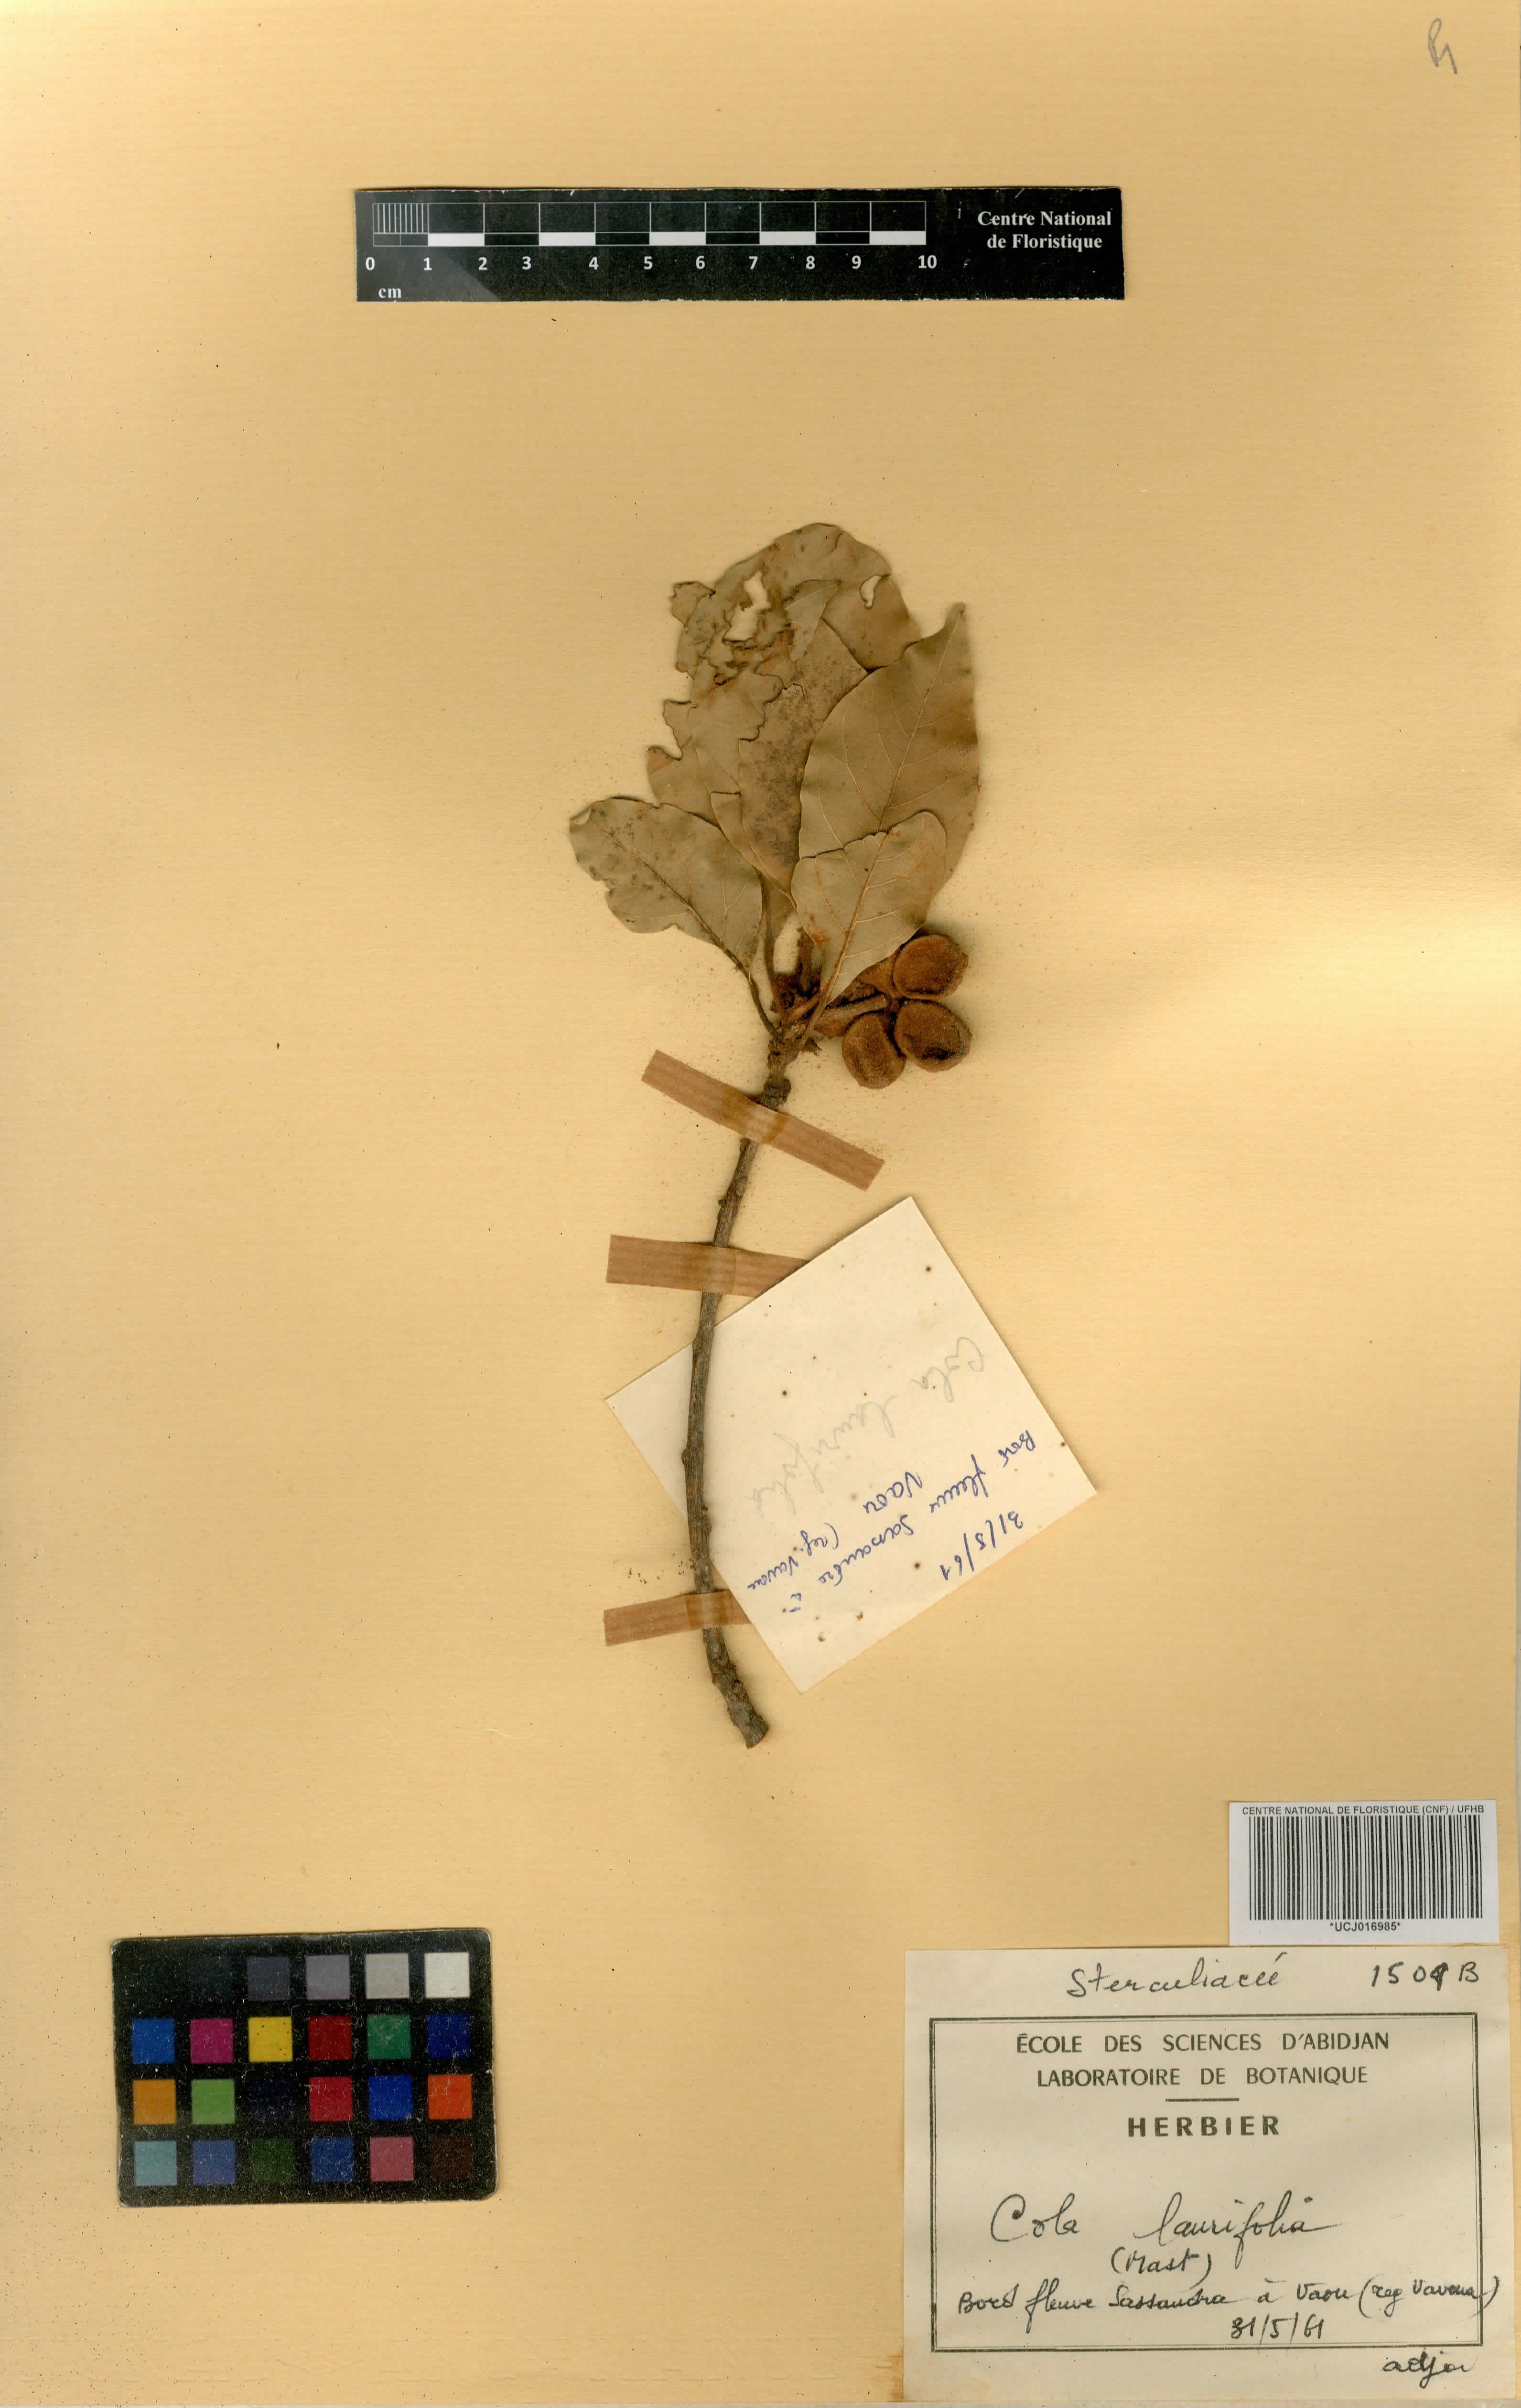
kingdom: Plantae
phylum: Tracheophyta
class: Magnoliopsida
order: Malvales
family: Malvaceae
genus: Cola
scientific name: Cola laurifolia
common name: Laurel-leaved kola
